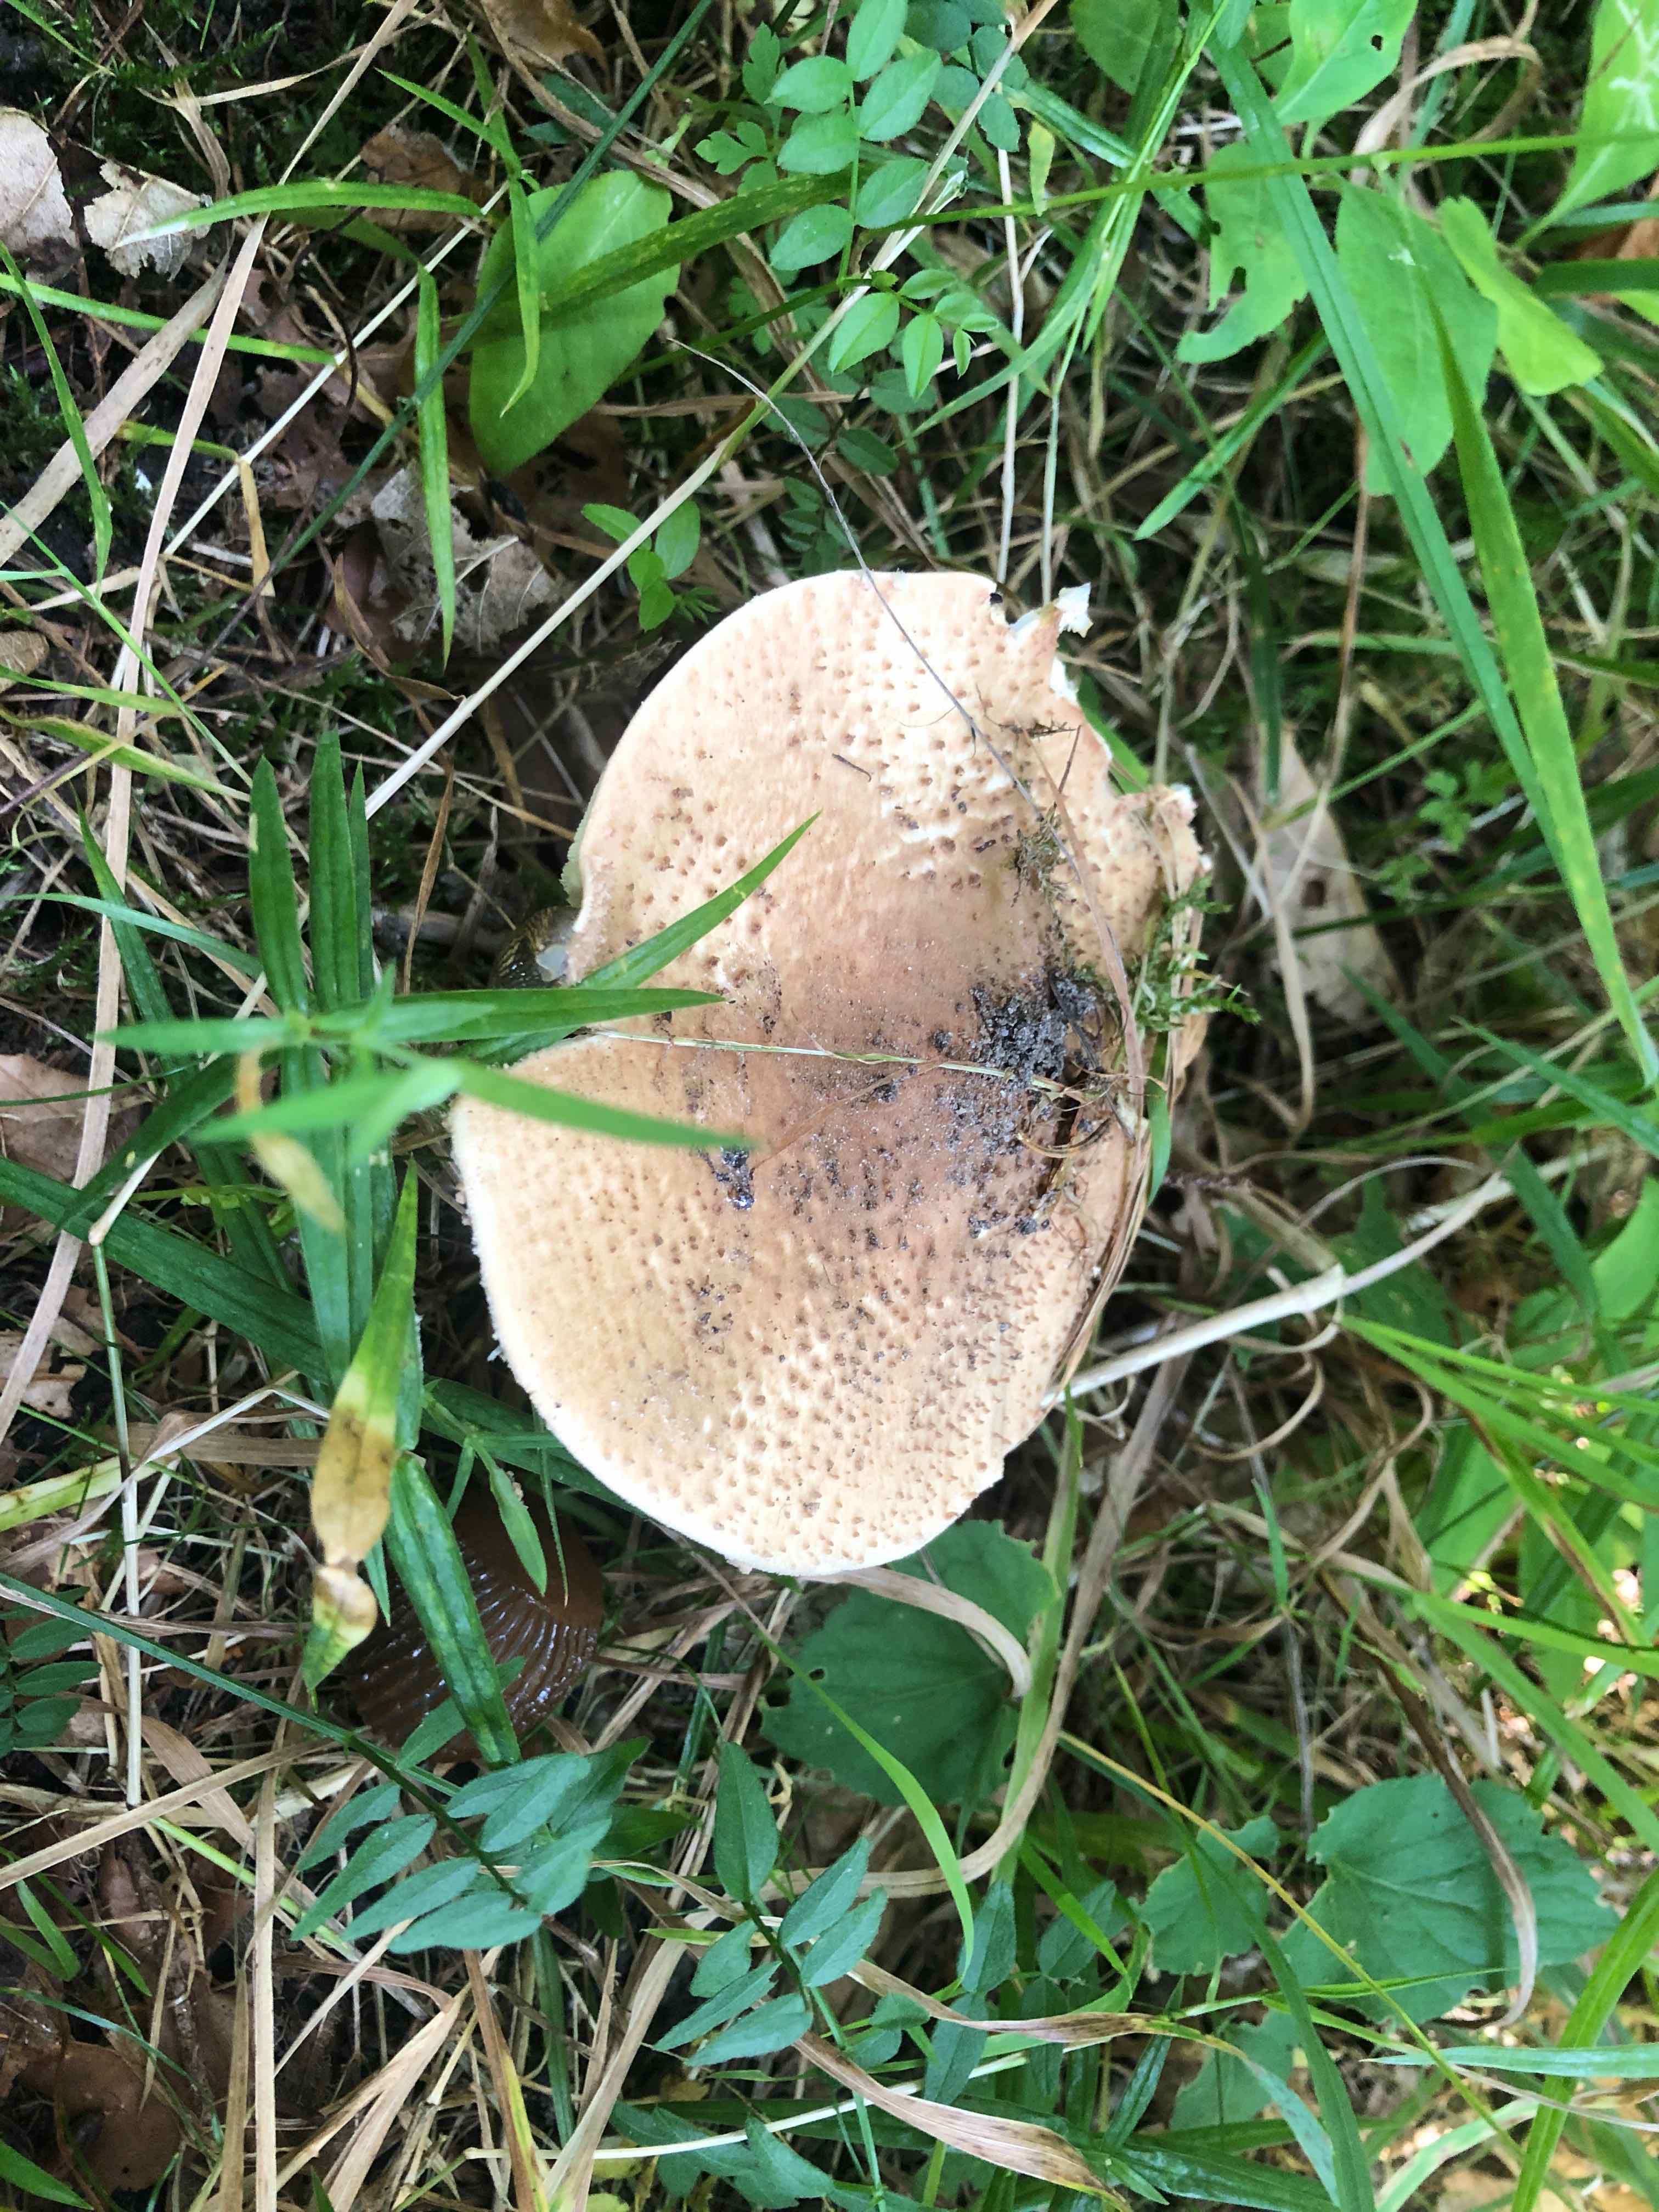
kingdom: Fungi
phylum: Basidiomycota
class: Agaricomycetes
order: Agaricales
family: Agaricaceae
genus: Echinoderma
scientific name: Echinoderma asperum
